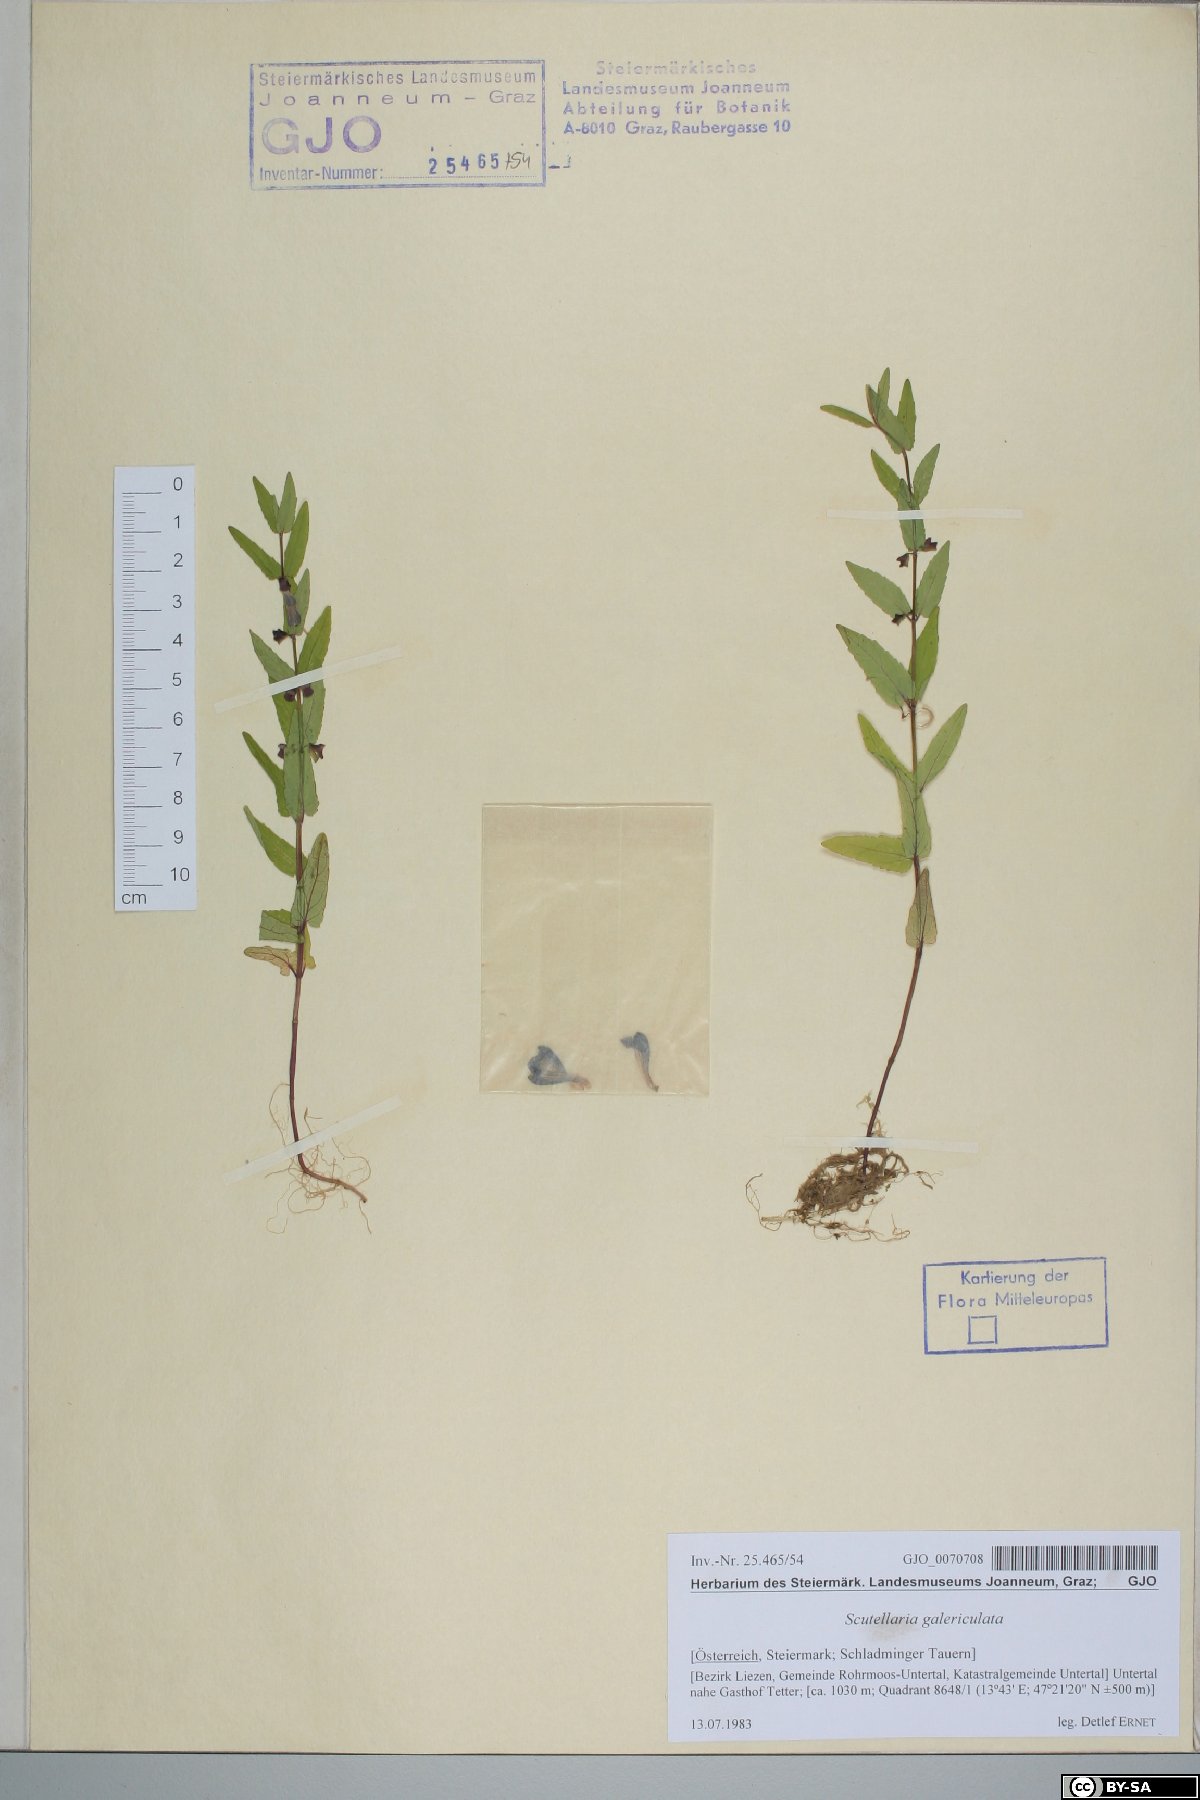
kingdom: Plantae
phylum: Tracheophyta
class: Magnoliopsida
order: Lamiales
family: Lamiaceae
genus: Scutellaria
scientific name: Scutellaria galericulata
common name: Skullcap
